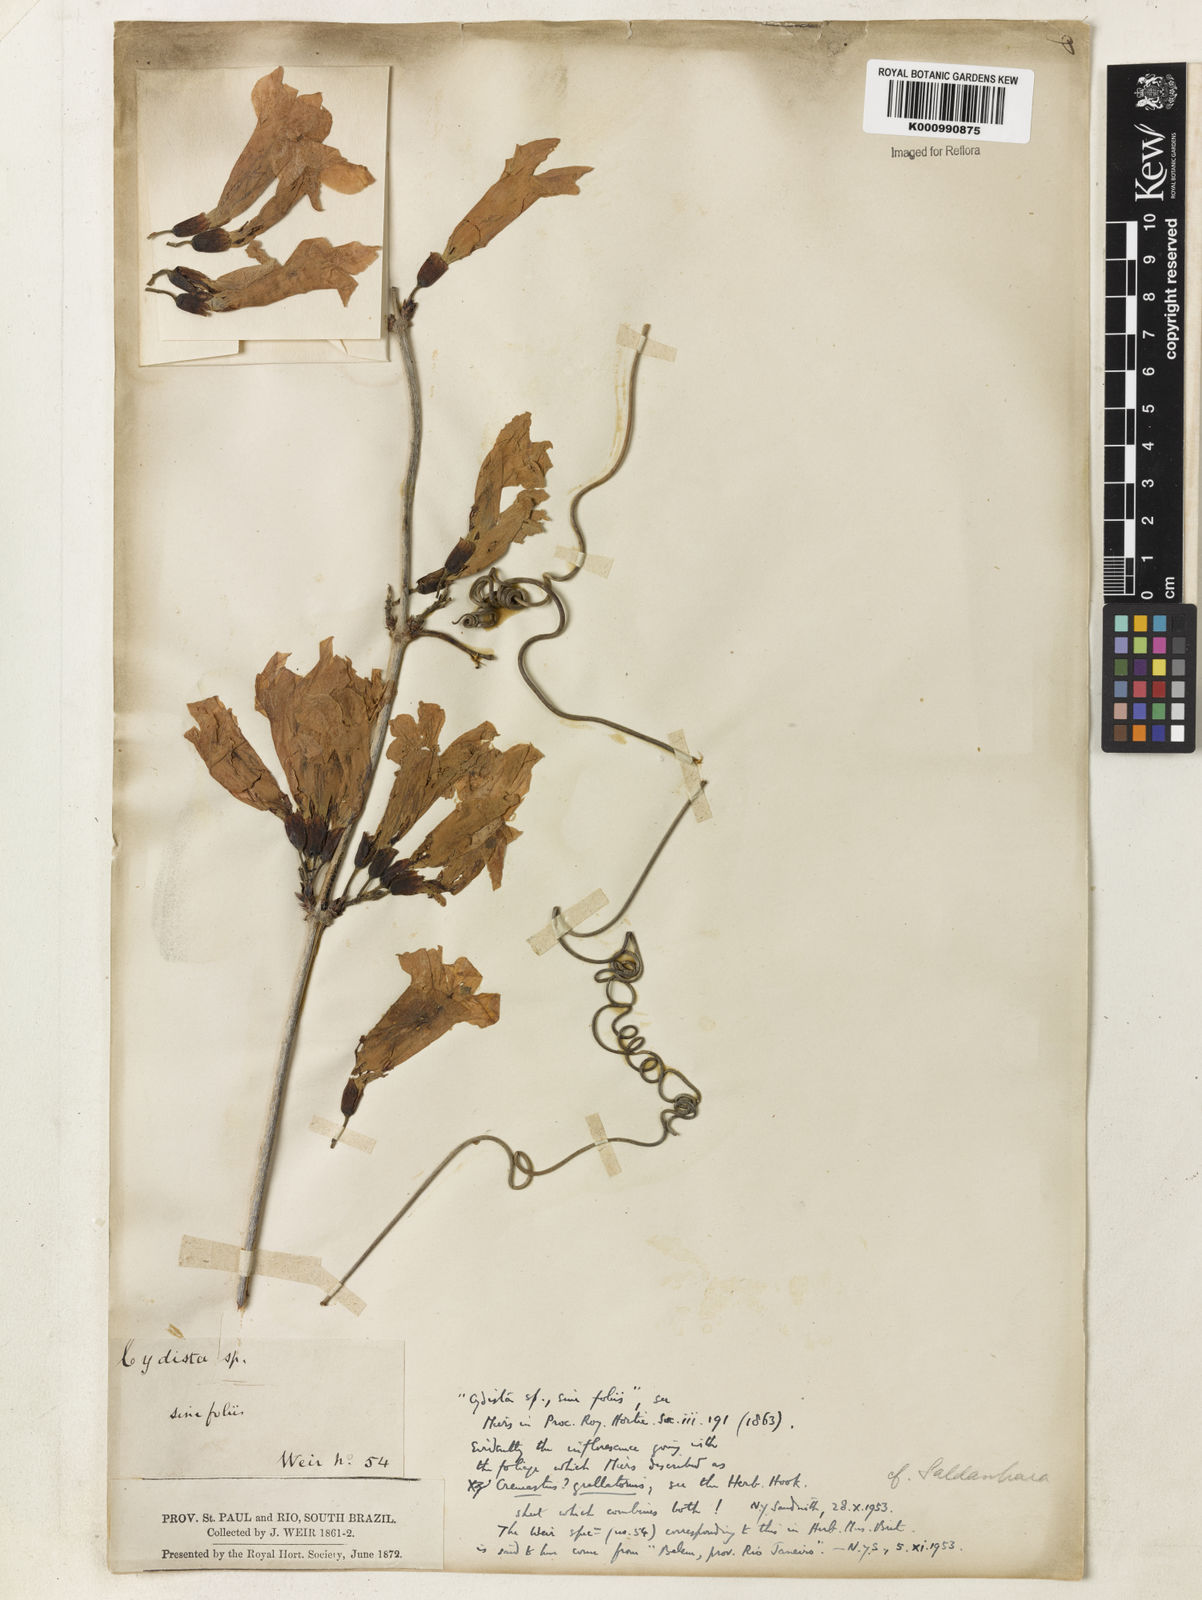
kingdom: Plantae
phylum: Tracheophyta
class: Magnoliopsida
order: Lamiales
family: Bignoniaceae
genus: Xylophragma
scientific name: Xylophragma pratense
